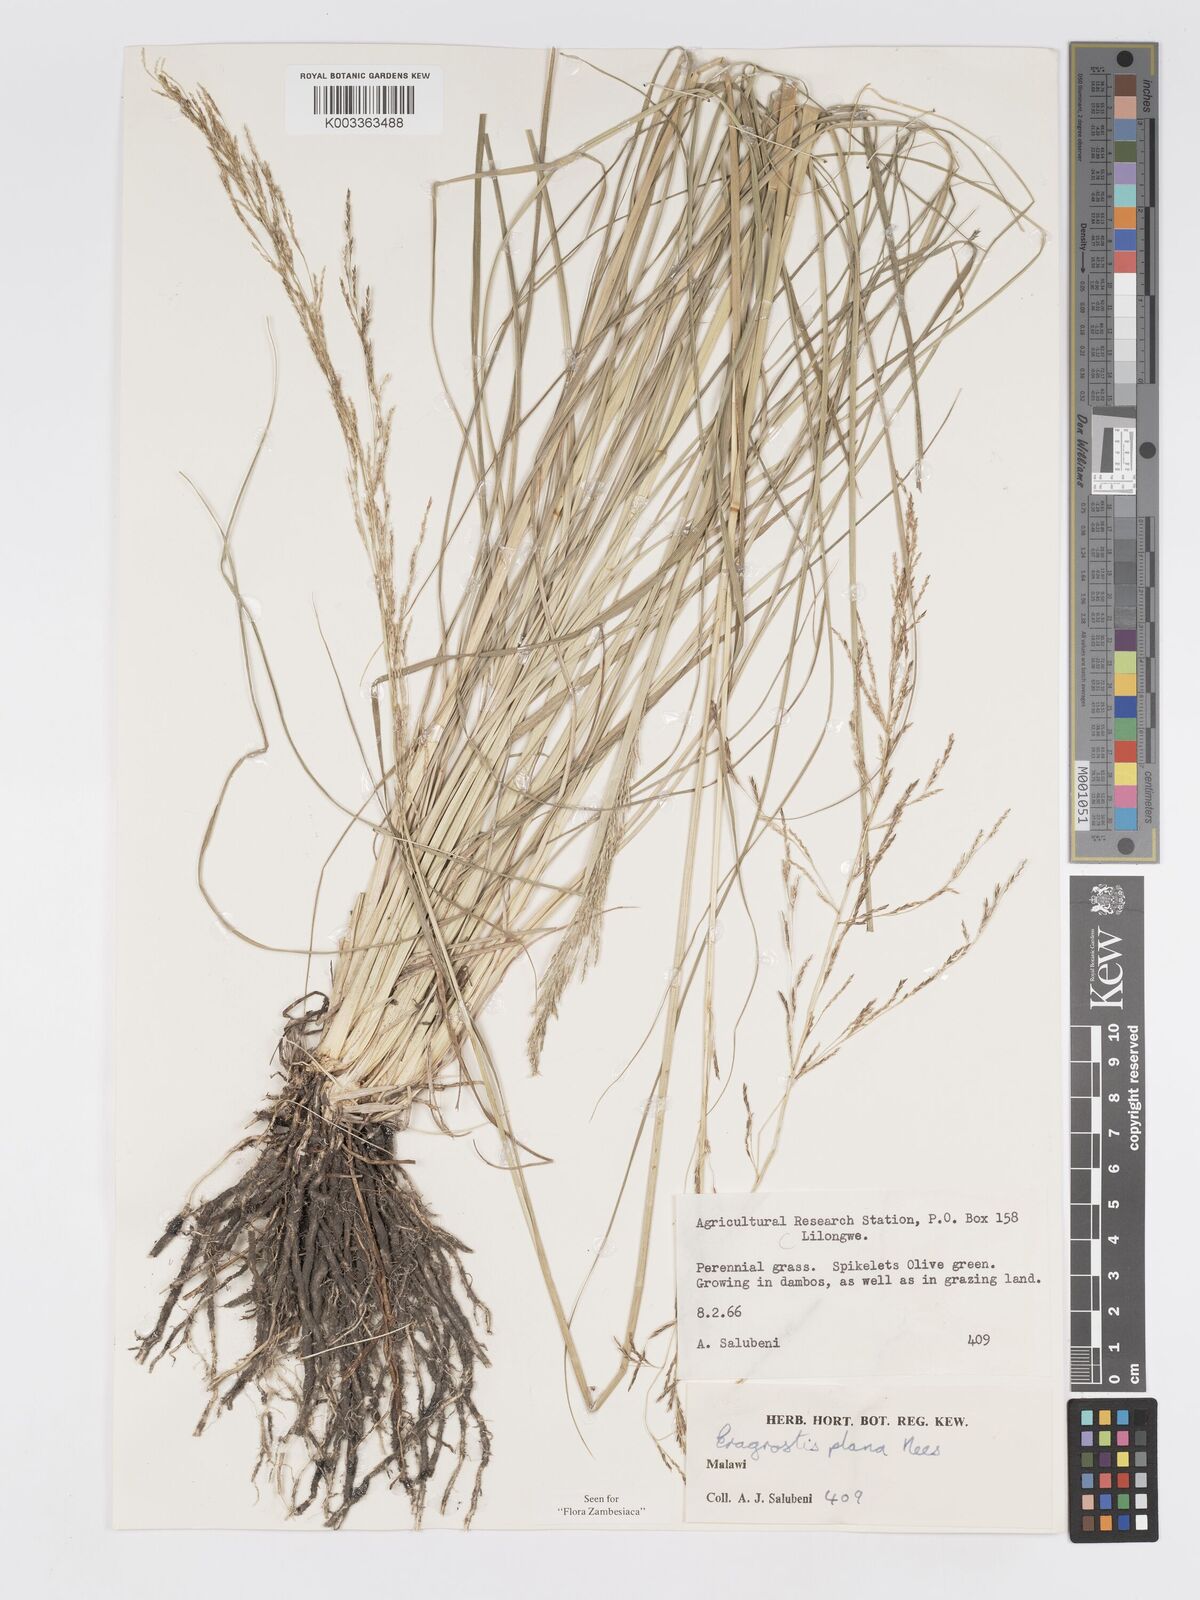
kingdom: Plantae
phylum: Tracheophyta
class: Liliopsida
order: Poales
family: Poaceae
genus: Eragrostis
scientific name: Eragrostis plana
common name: South african lovegrass
